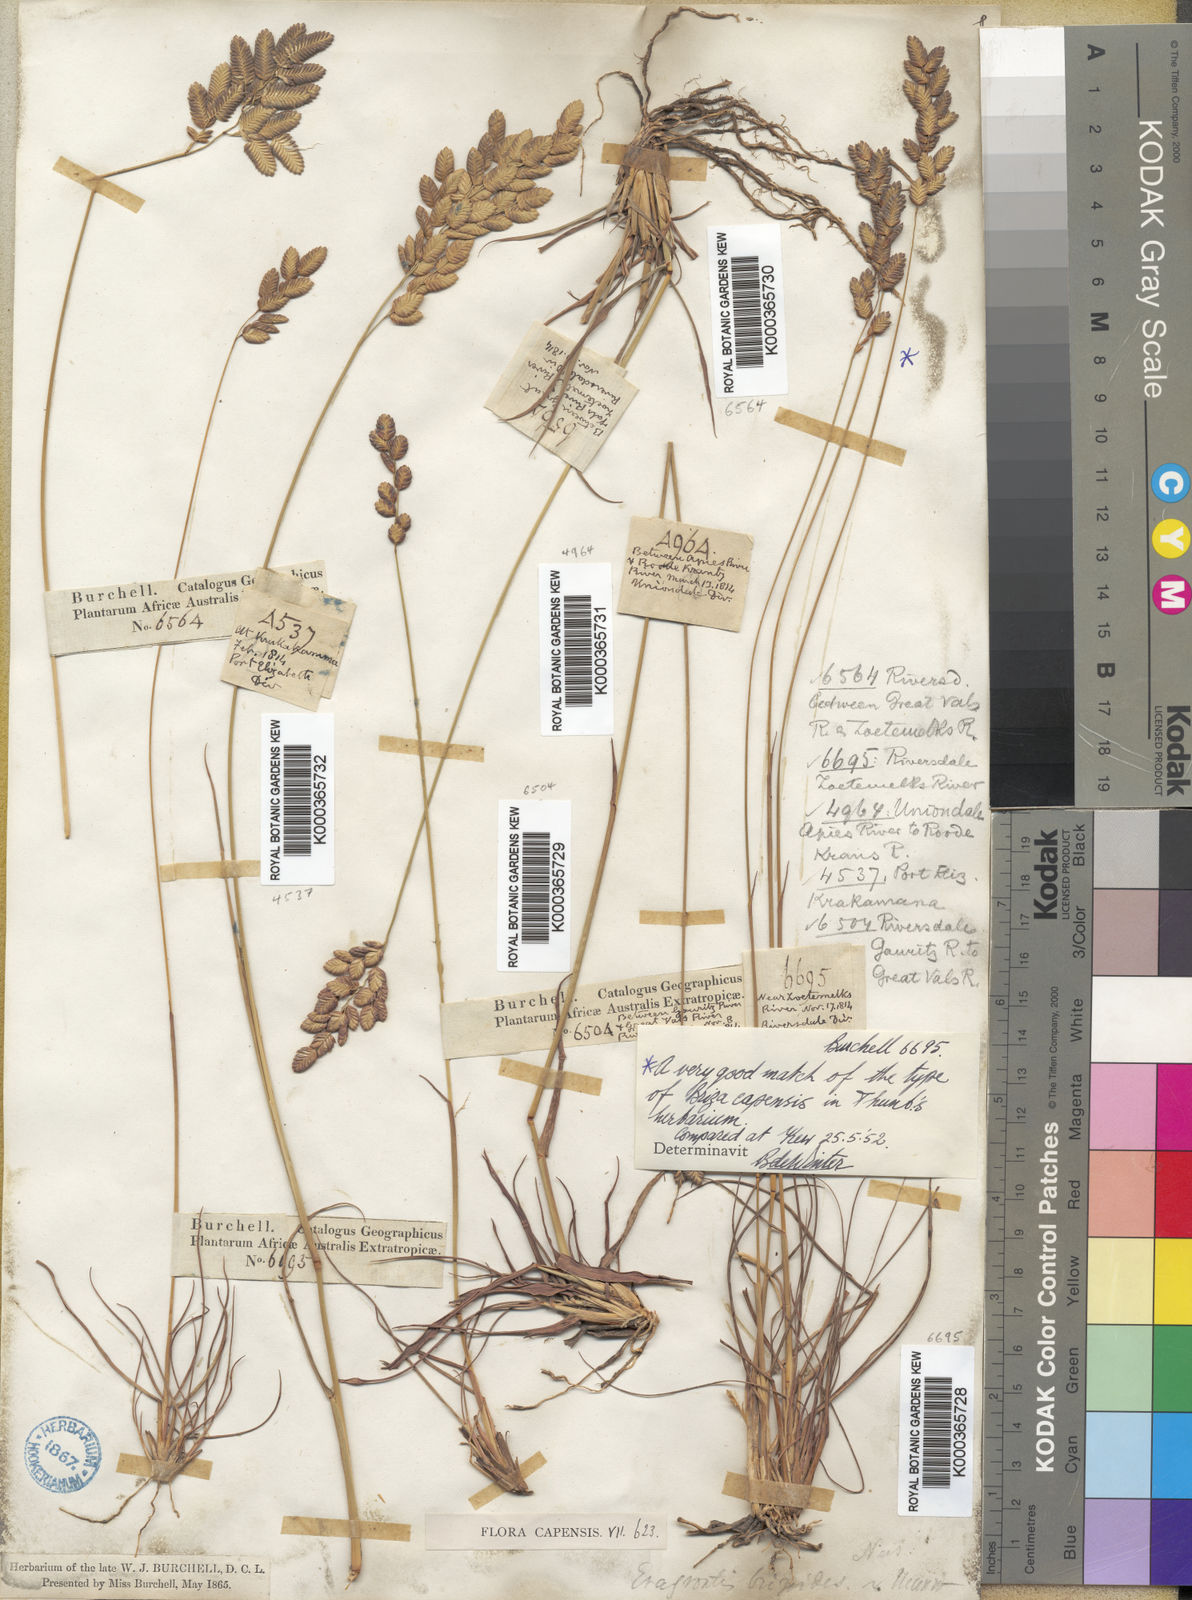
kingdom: Plantae
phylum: Tracheophyta
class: Liliopsida
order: Poales
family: Poaceae
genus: Eragrostis
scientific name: Eragrostis capensis
